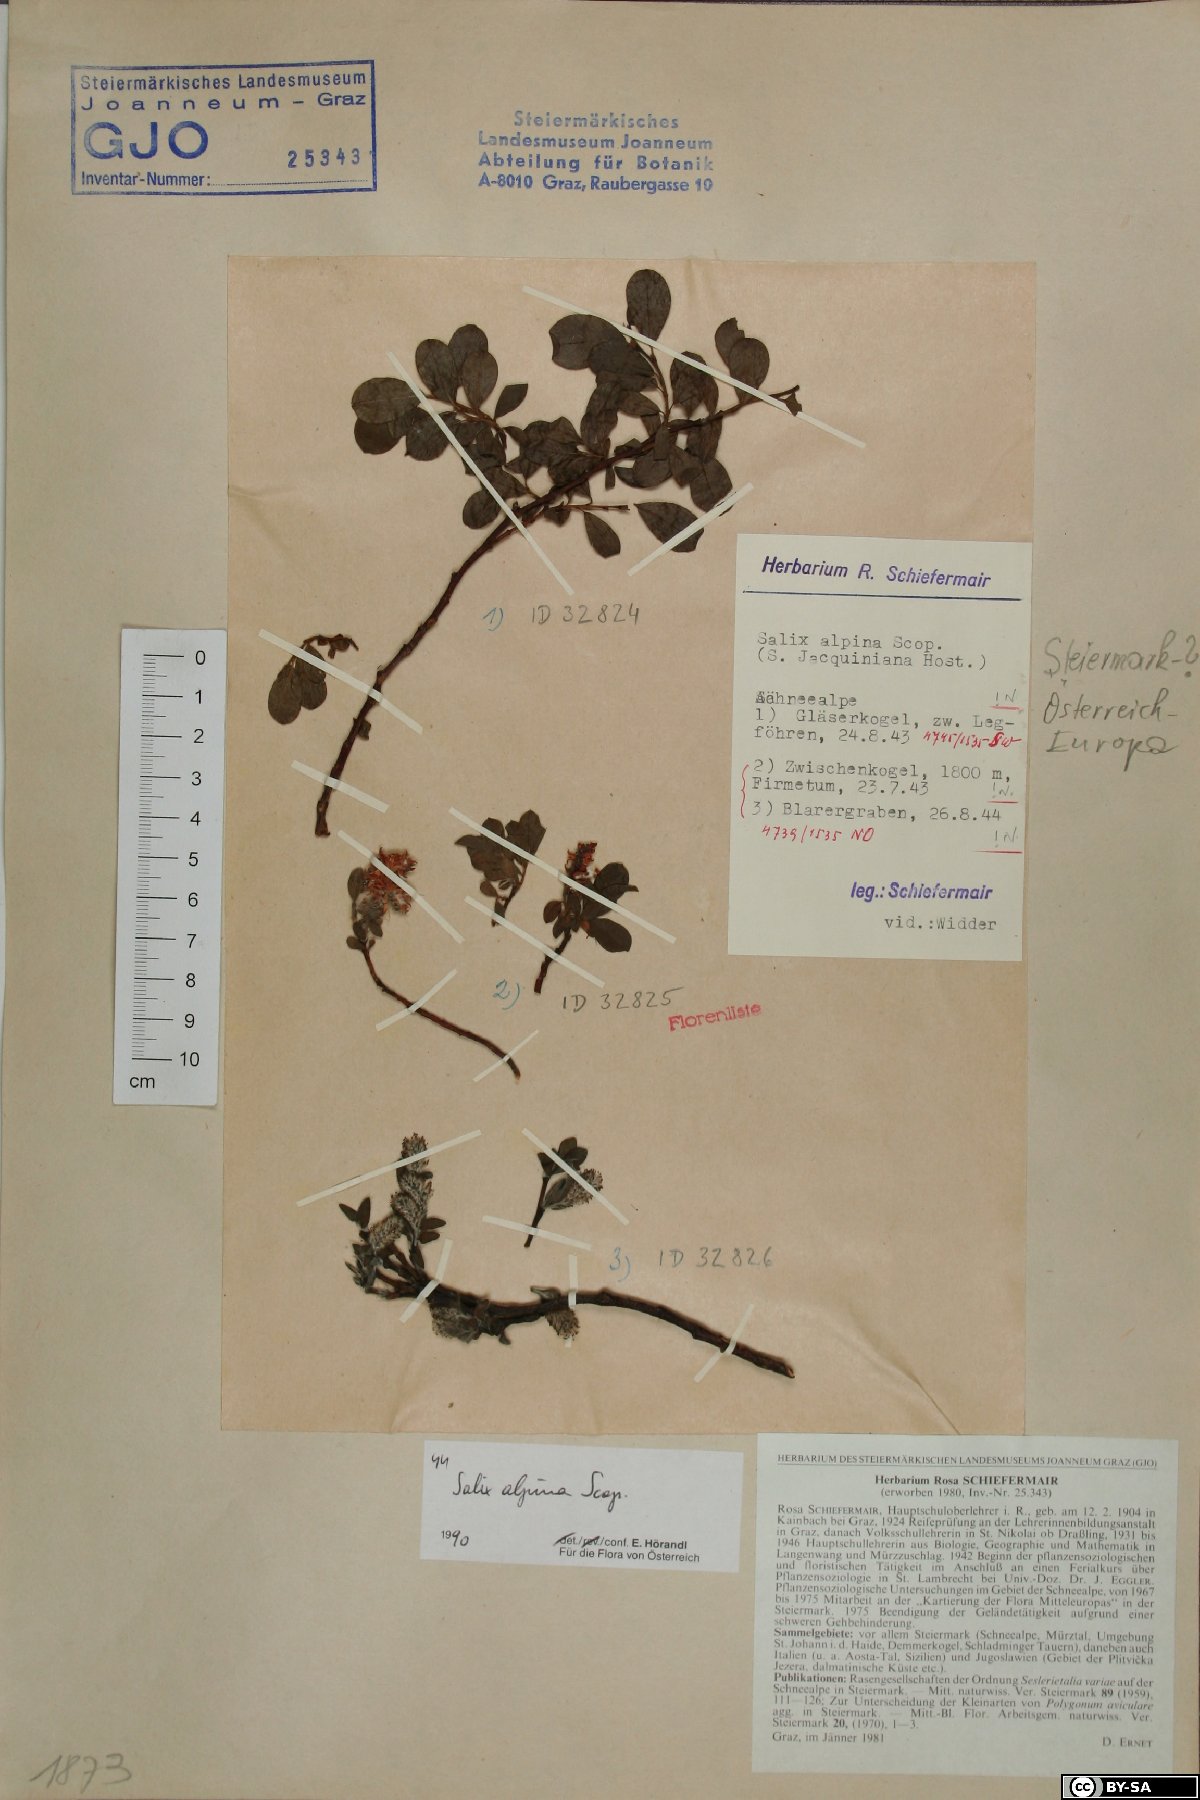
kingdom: Plantae
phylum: Tracheophyta
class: Magnoliopsida
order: Malpighiales
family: Salicaceae
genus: Salix
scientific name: Salix alpina
